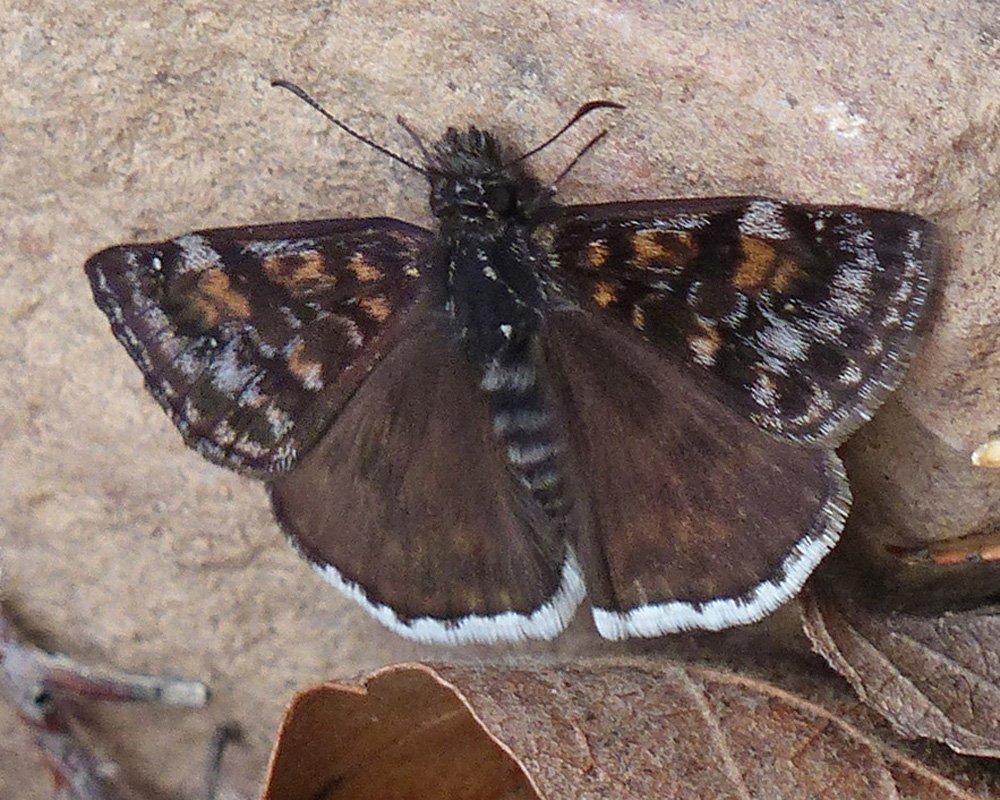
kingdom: Animalia
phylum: Arthropoda
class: Insecta
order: Lepidoptera
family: Hesperiidae
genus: Erynnis
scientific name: Erynnis pacuvius
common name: Pacuvius Duskywing
